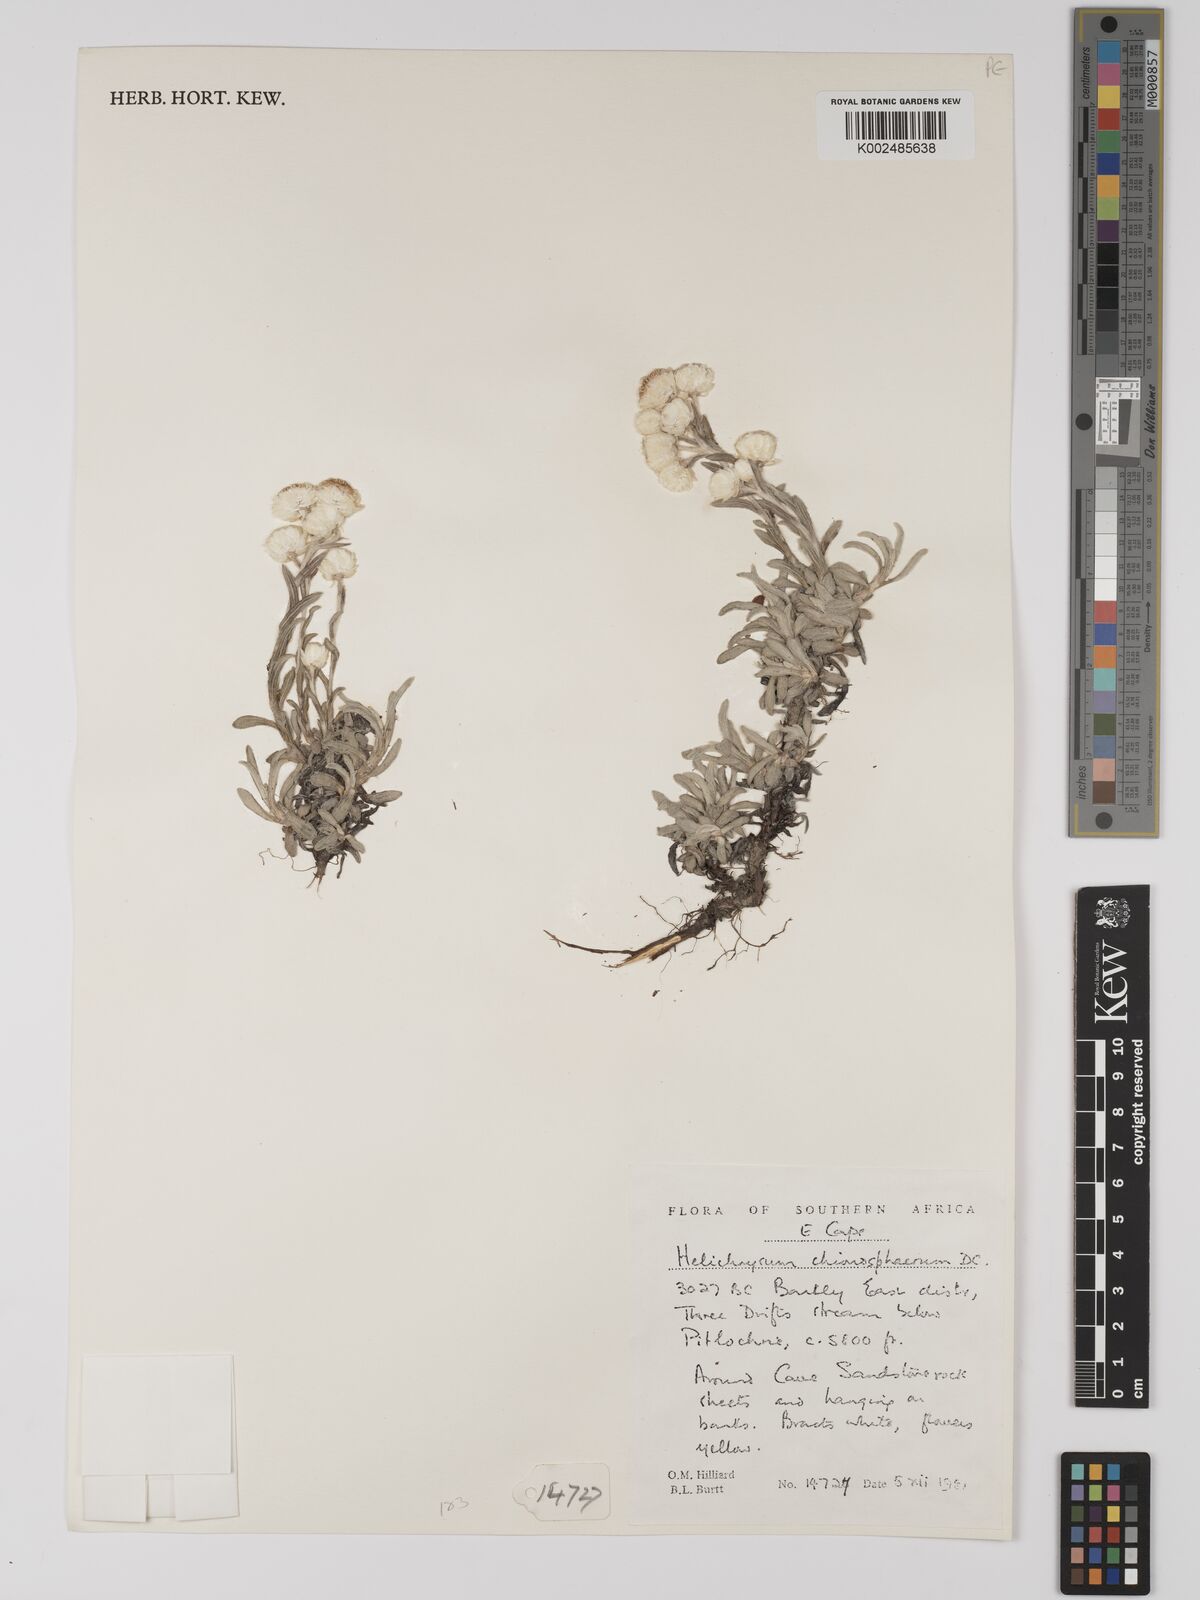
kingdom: Plantae
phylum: Tracheophyta
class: Magnoliopsida
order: Asterales
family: Asteraceae
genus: Helichrysum
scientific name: Helichrysum chionosphaerum
